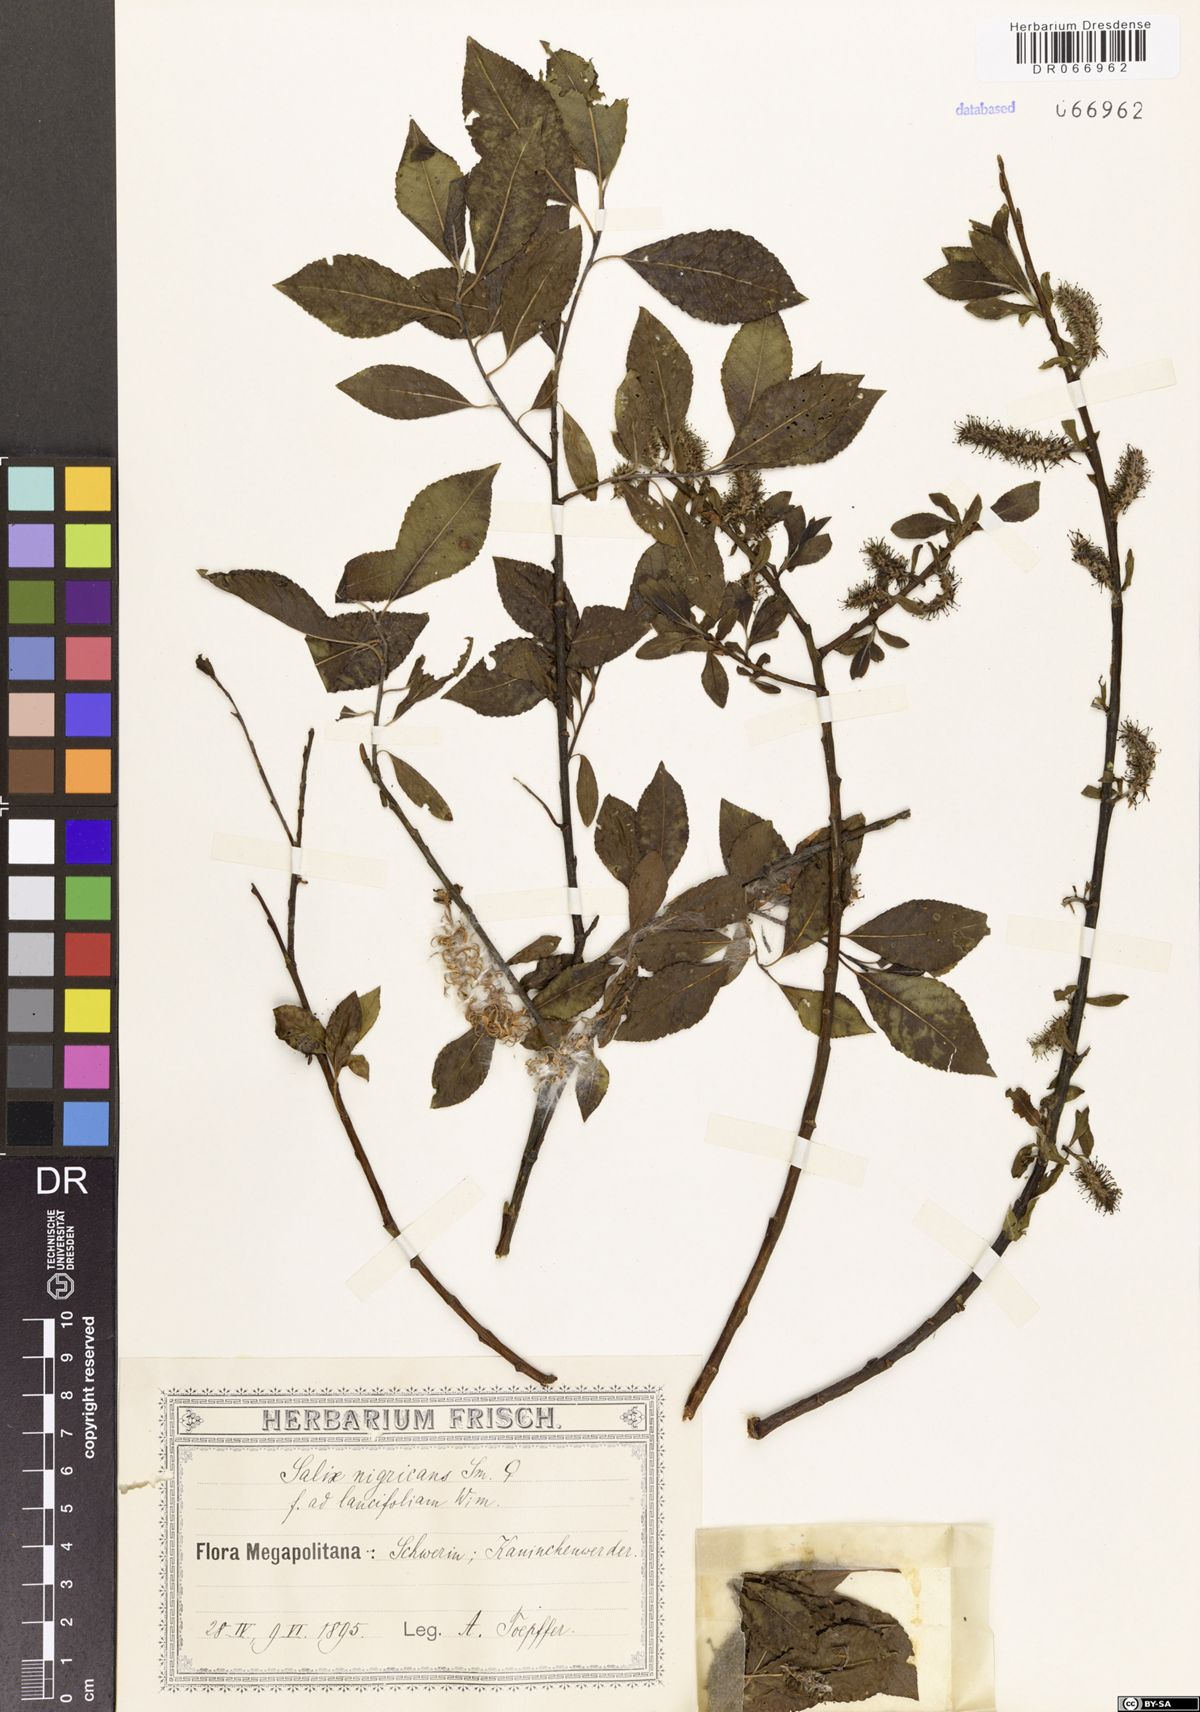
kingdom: Plantae
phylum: Tracheophyta
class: Magnoliopsida
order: Malpighiales
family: Salicaceae
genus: Salix
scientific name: Salix lapponum
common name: Downy willow
